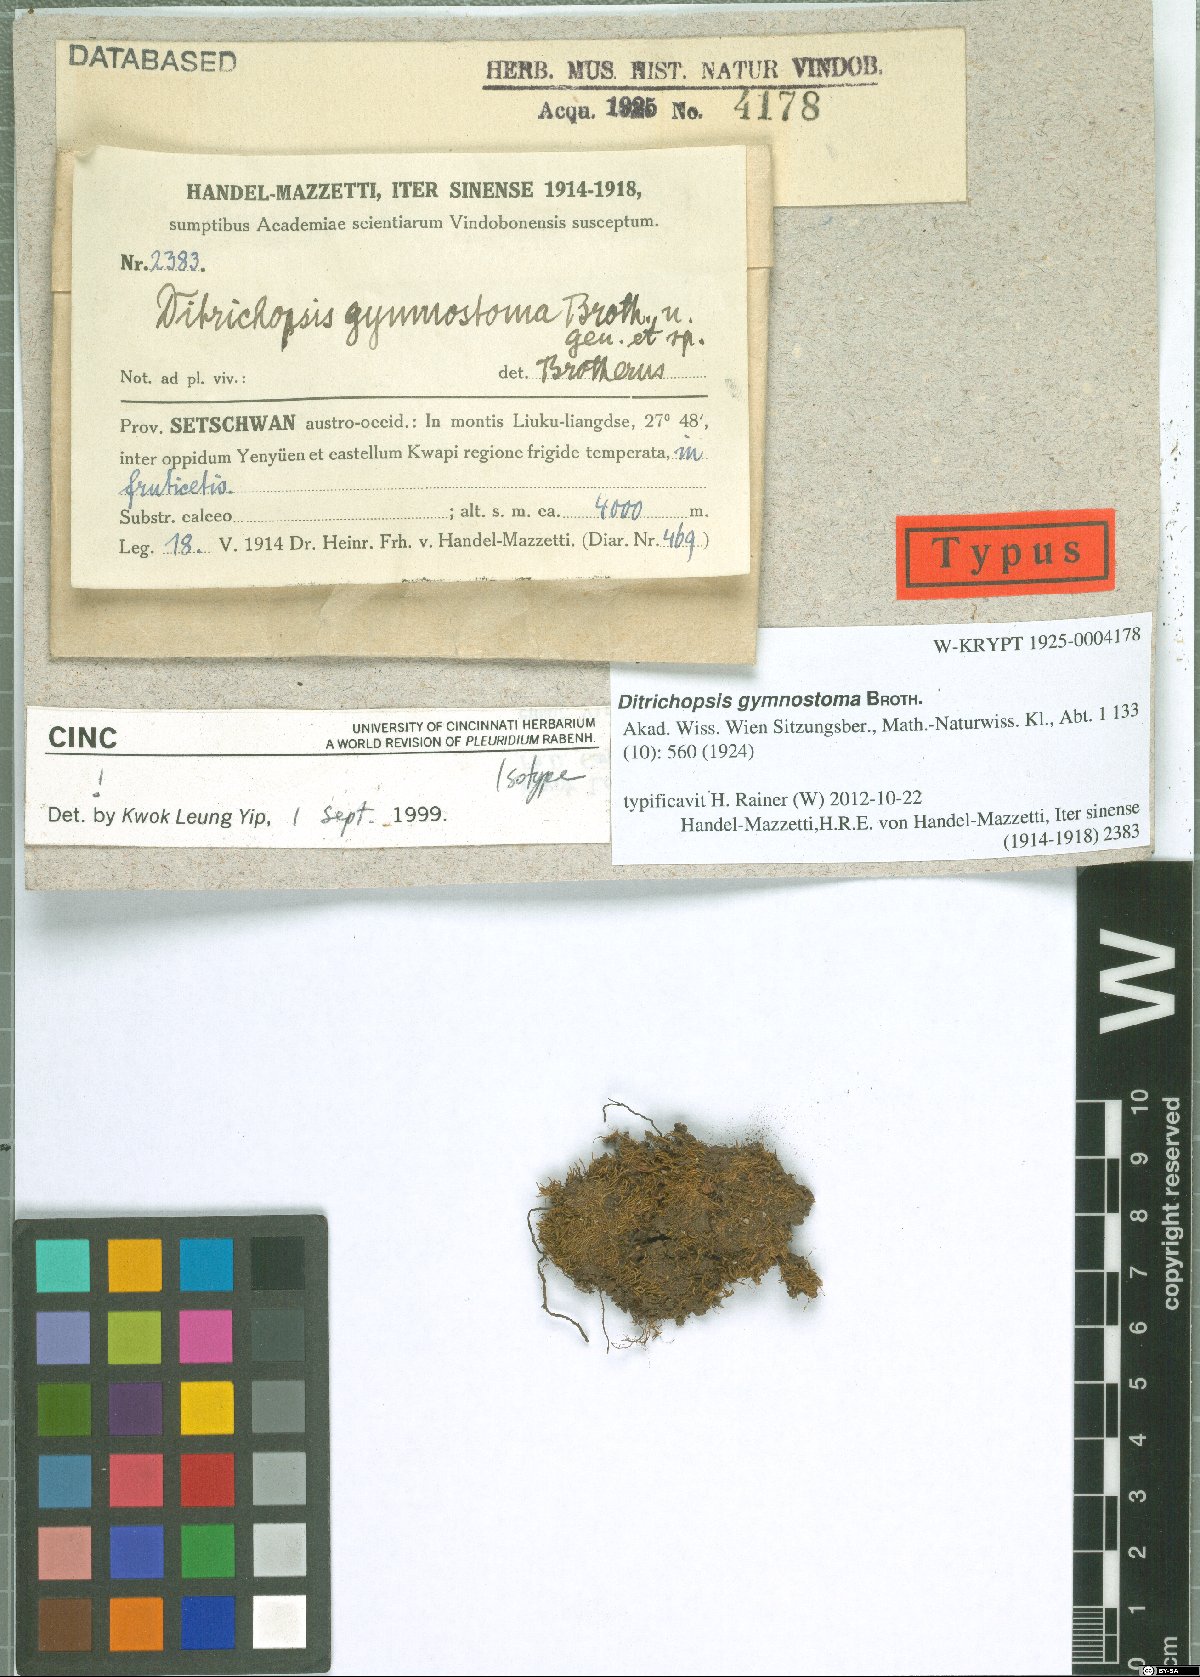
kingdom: Plantae
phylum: Bryophyta
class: Bryopsida
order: Dicranales
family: Ditrichaceae
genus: Ditrichopsis
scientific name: Ditrichopsis gymnostoma
